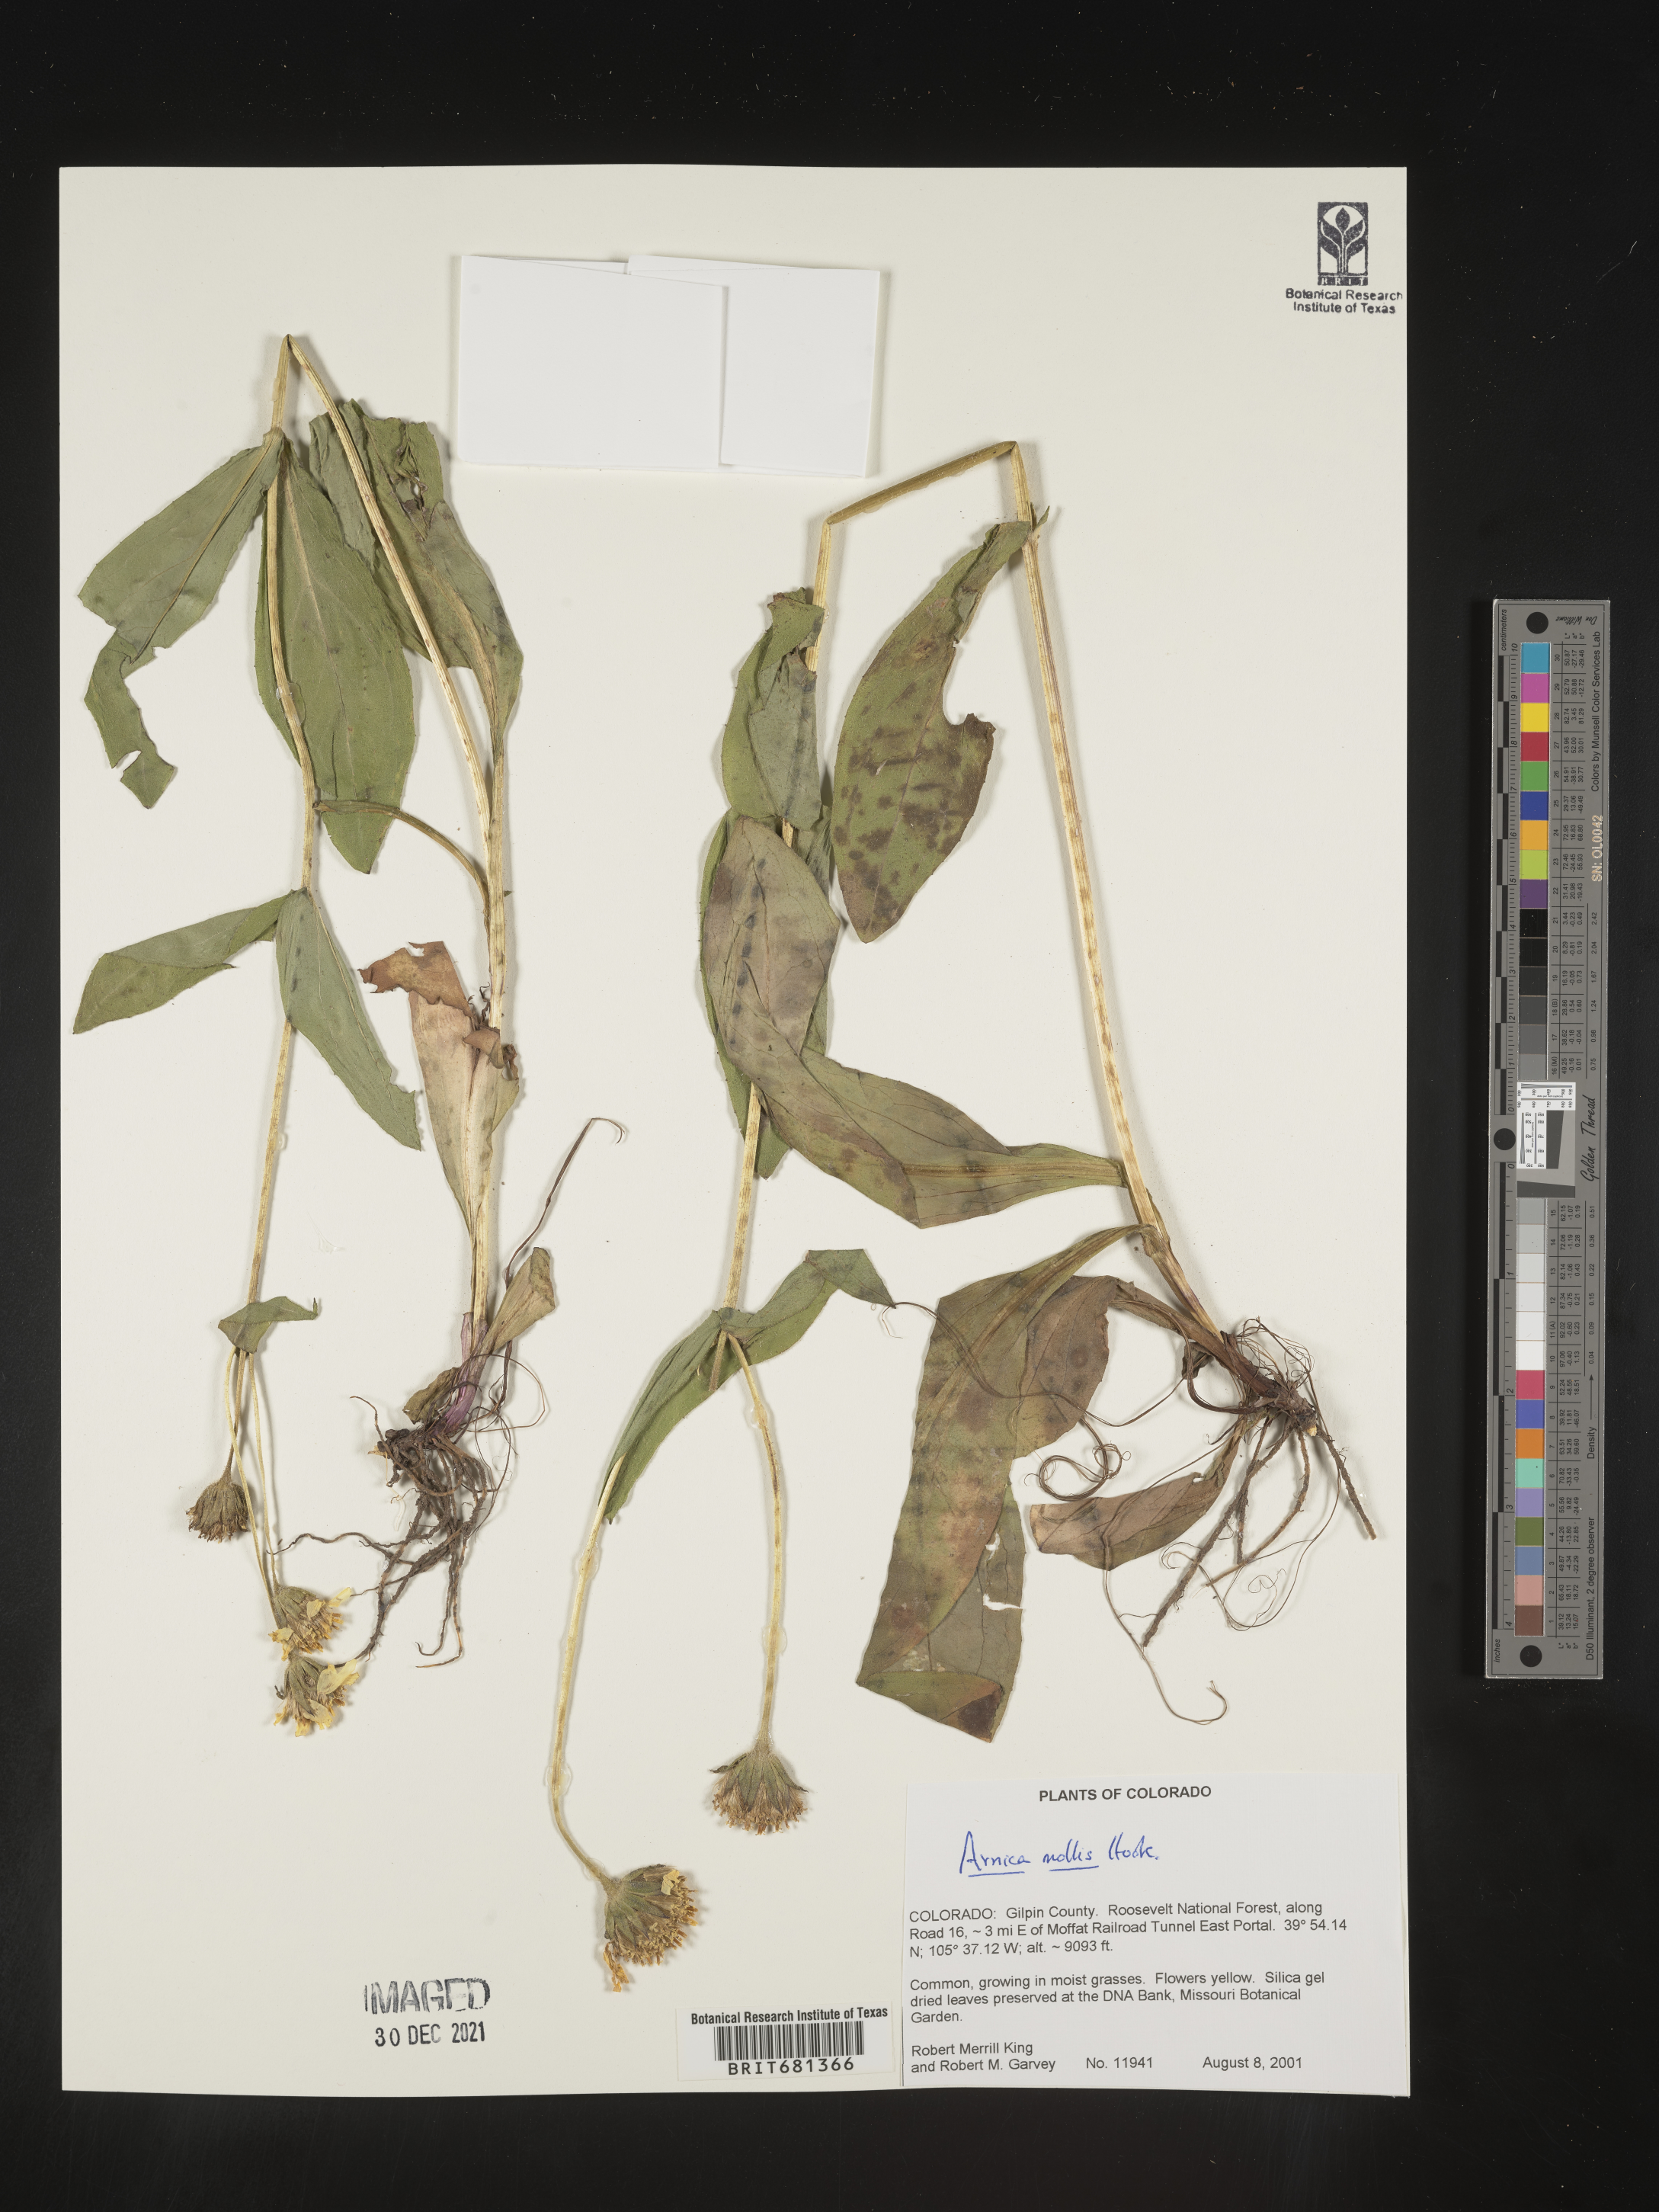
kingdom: Plantae
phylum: Tracheophyta
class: Magnoliopsida
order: Asterales
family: Asteraceae
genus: Arnica
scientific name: Arnica mollis
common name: Hairy arnica
